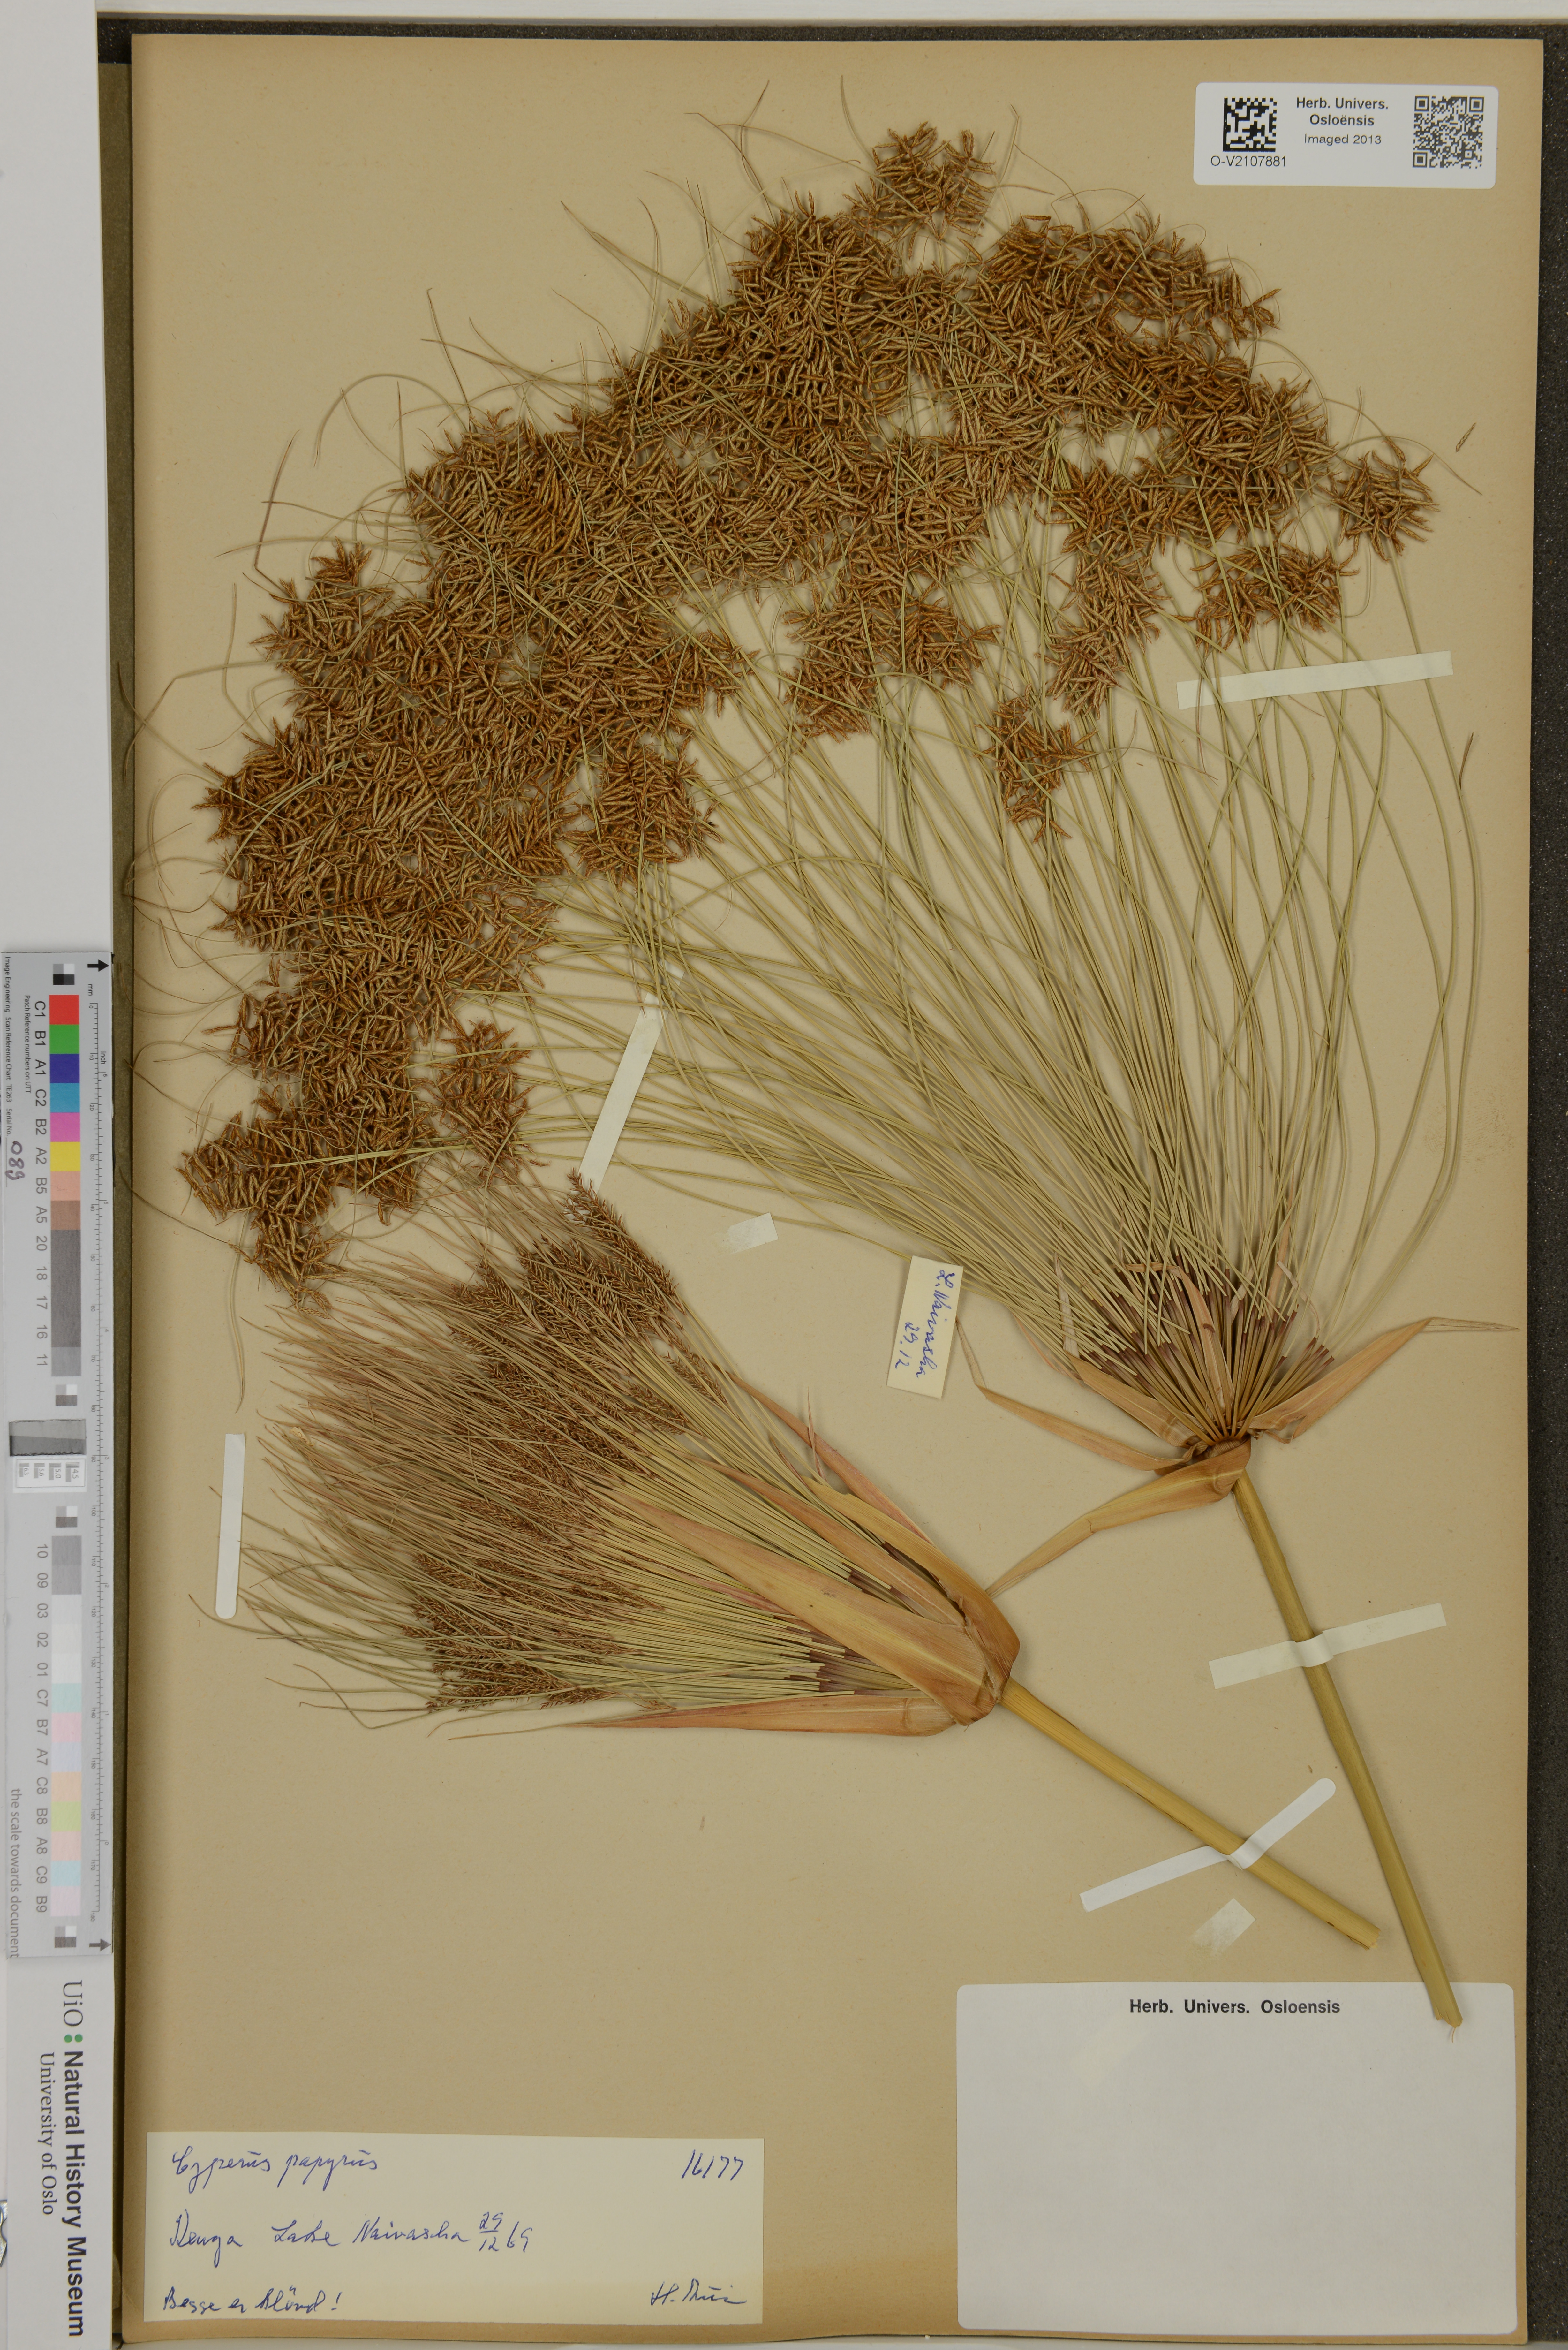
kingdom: Plantae
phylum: Tracheophyta
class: Liliopsida
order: Poales
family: Cyperaceae
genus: Cyperus
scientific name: Cyperus papyrus
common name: Papyrus
